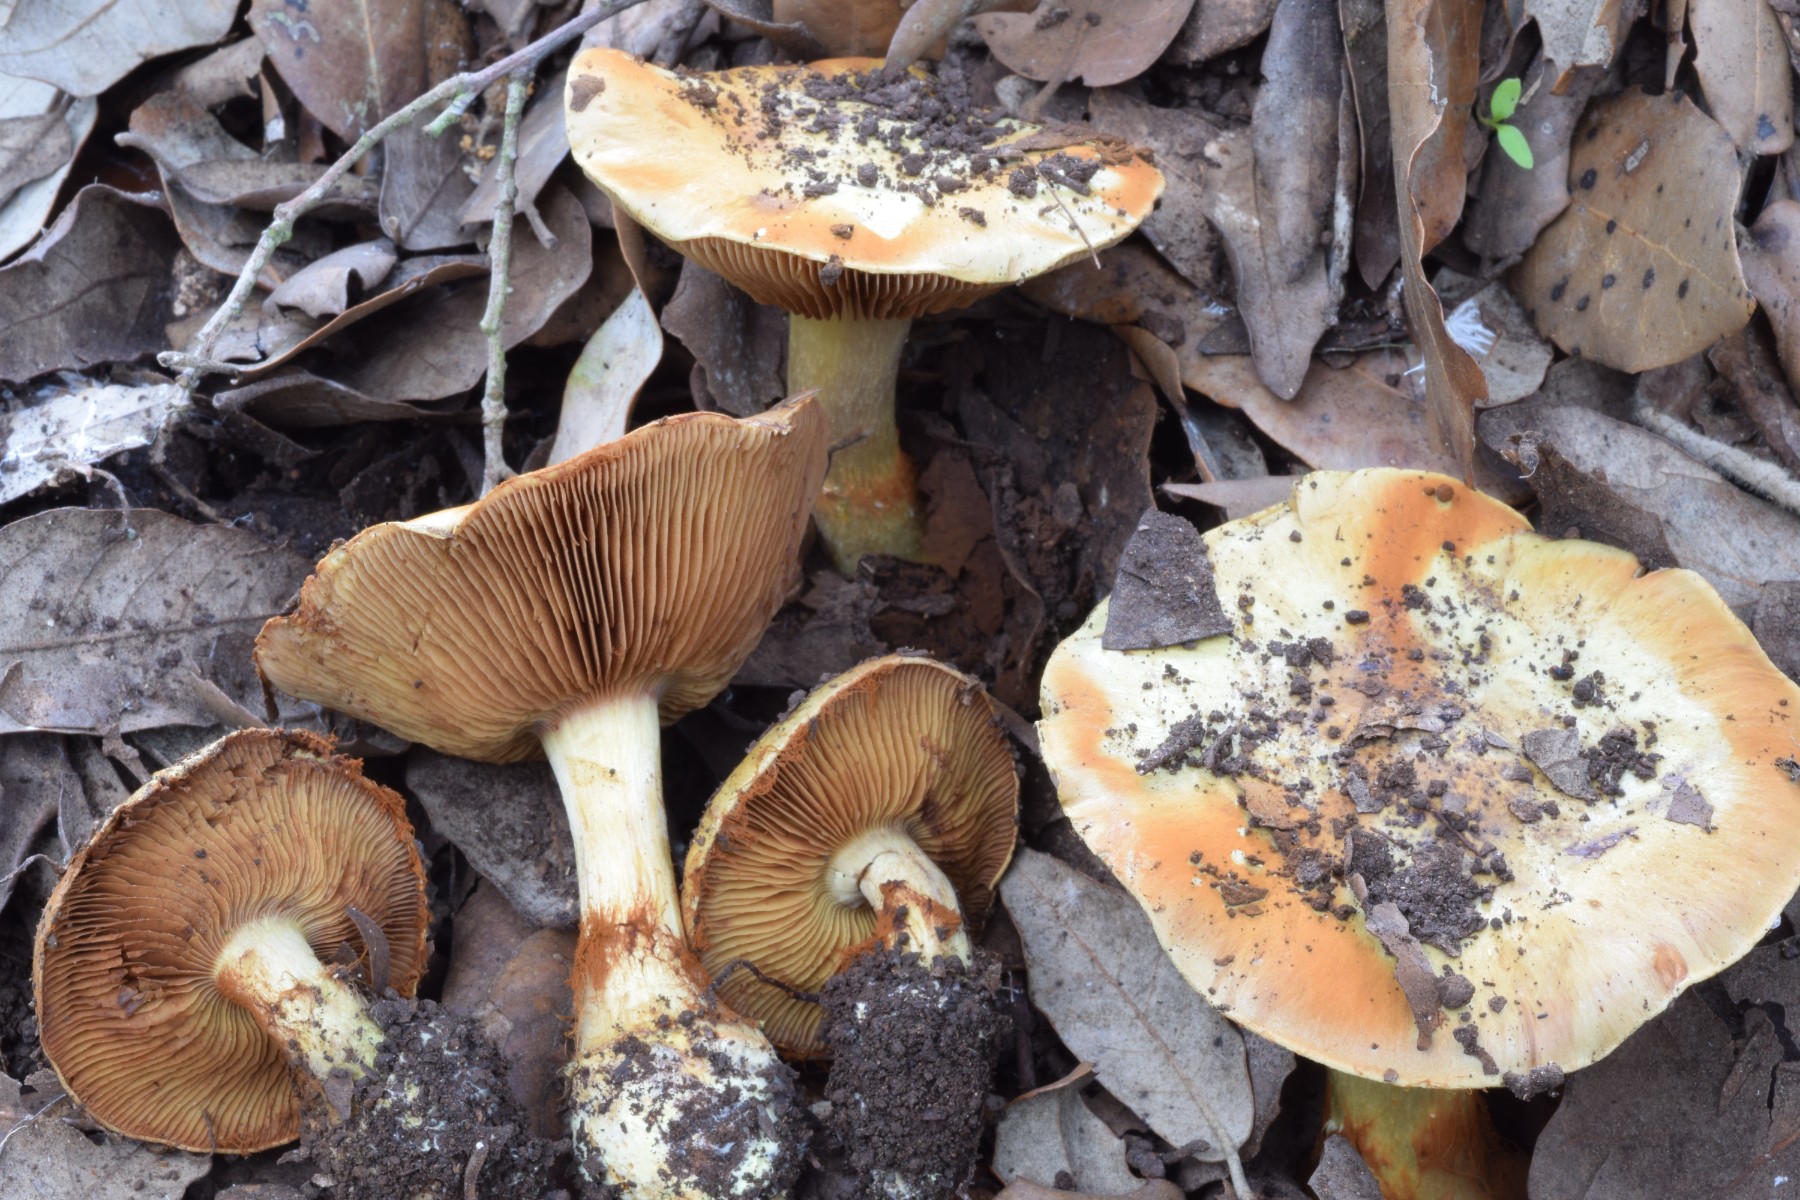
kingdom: Fungi
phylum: Basidiomycota
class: Agaricomycetes
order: Agaricales
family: Cortinariaceae
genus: Calonarius
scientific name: Calonarius splendificus
